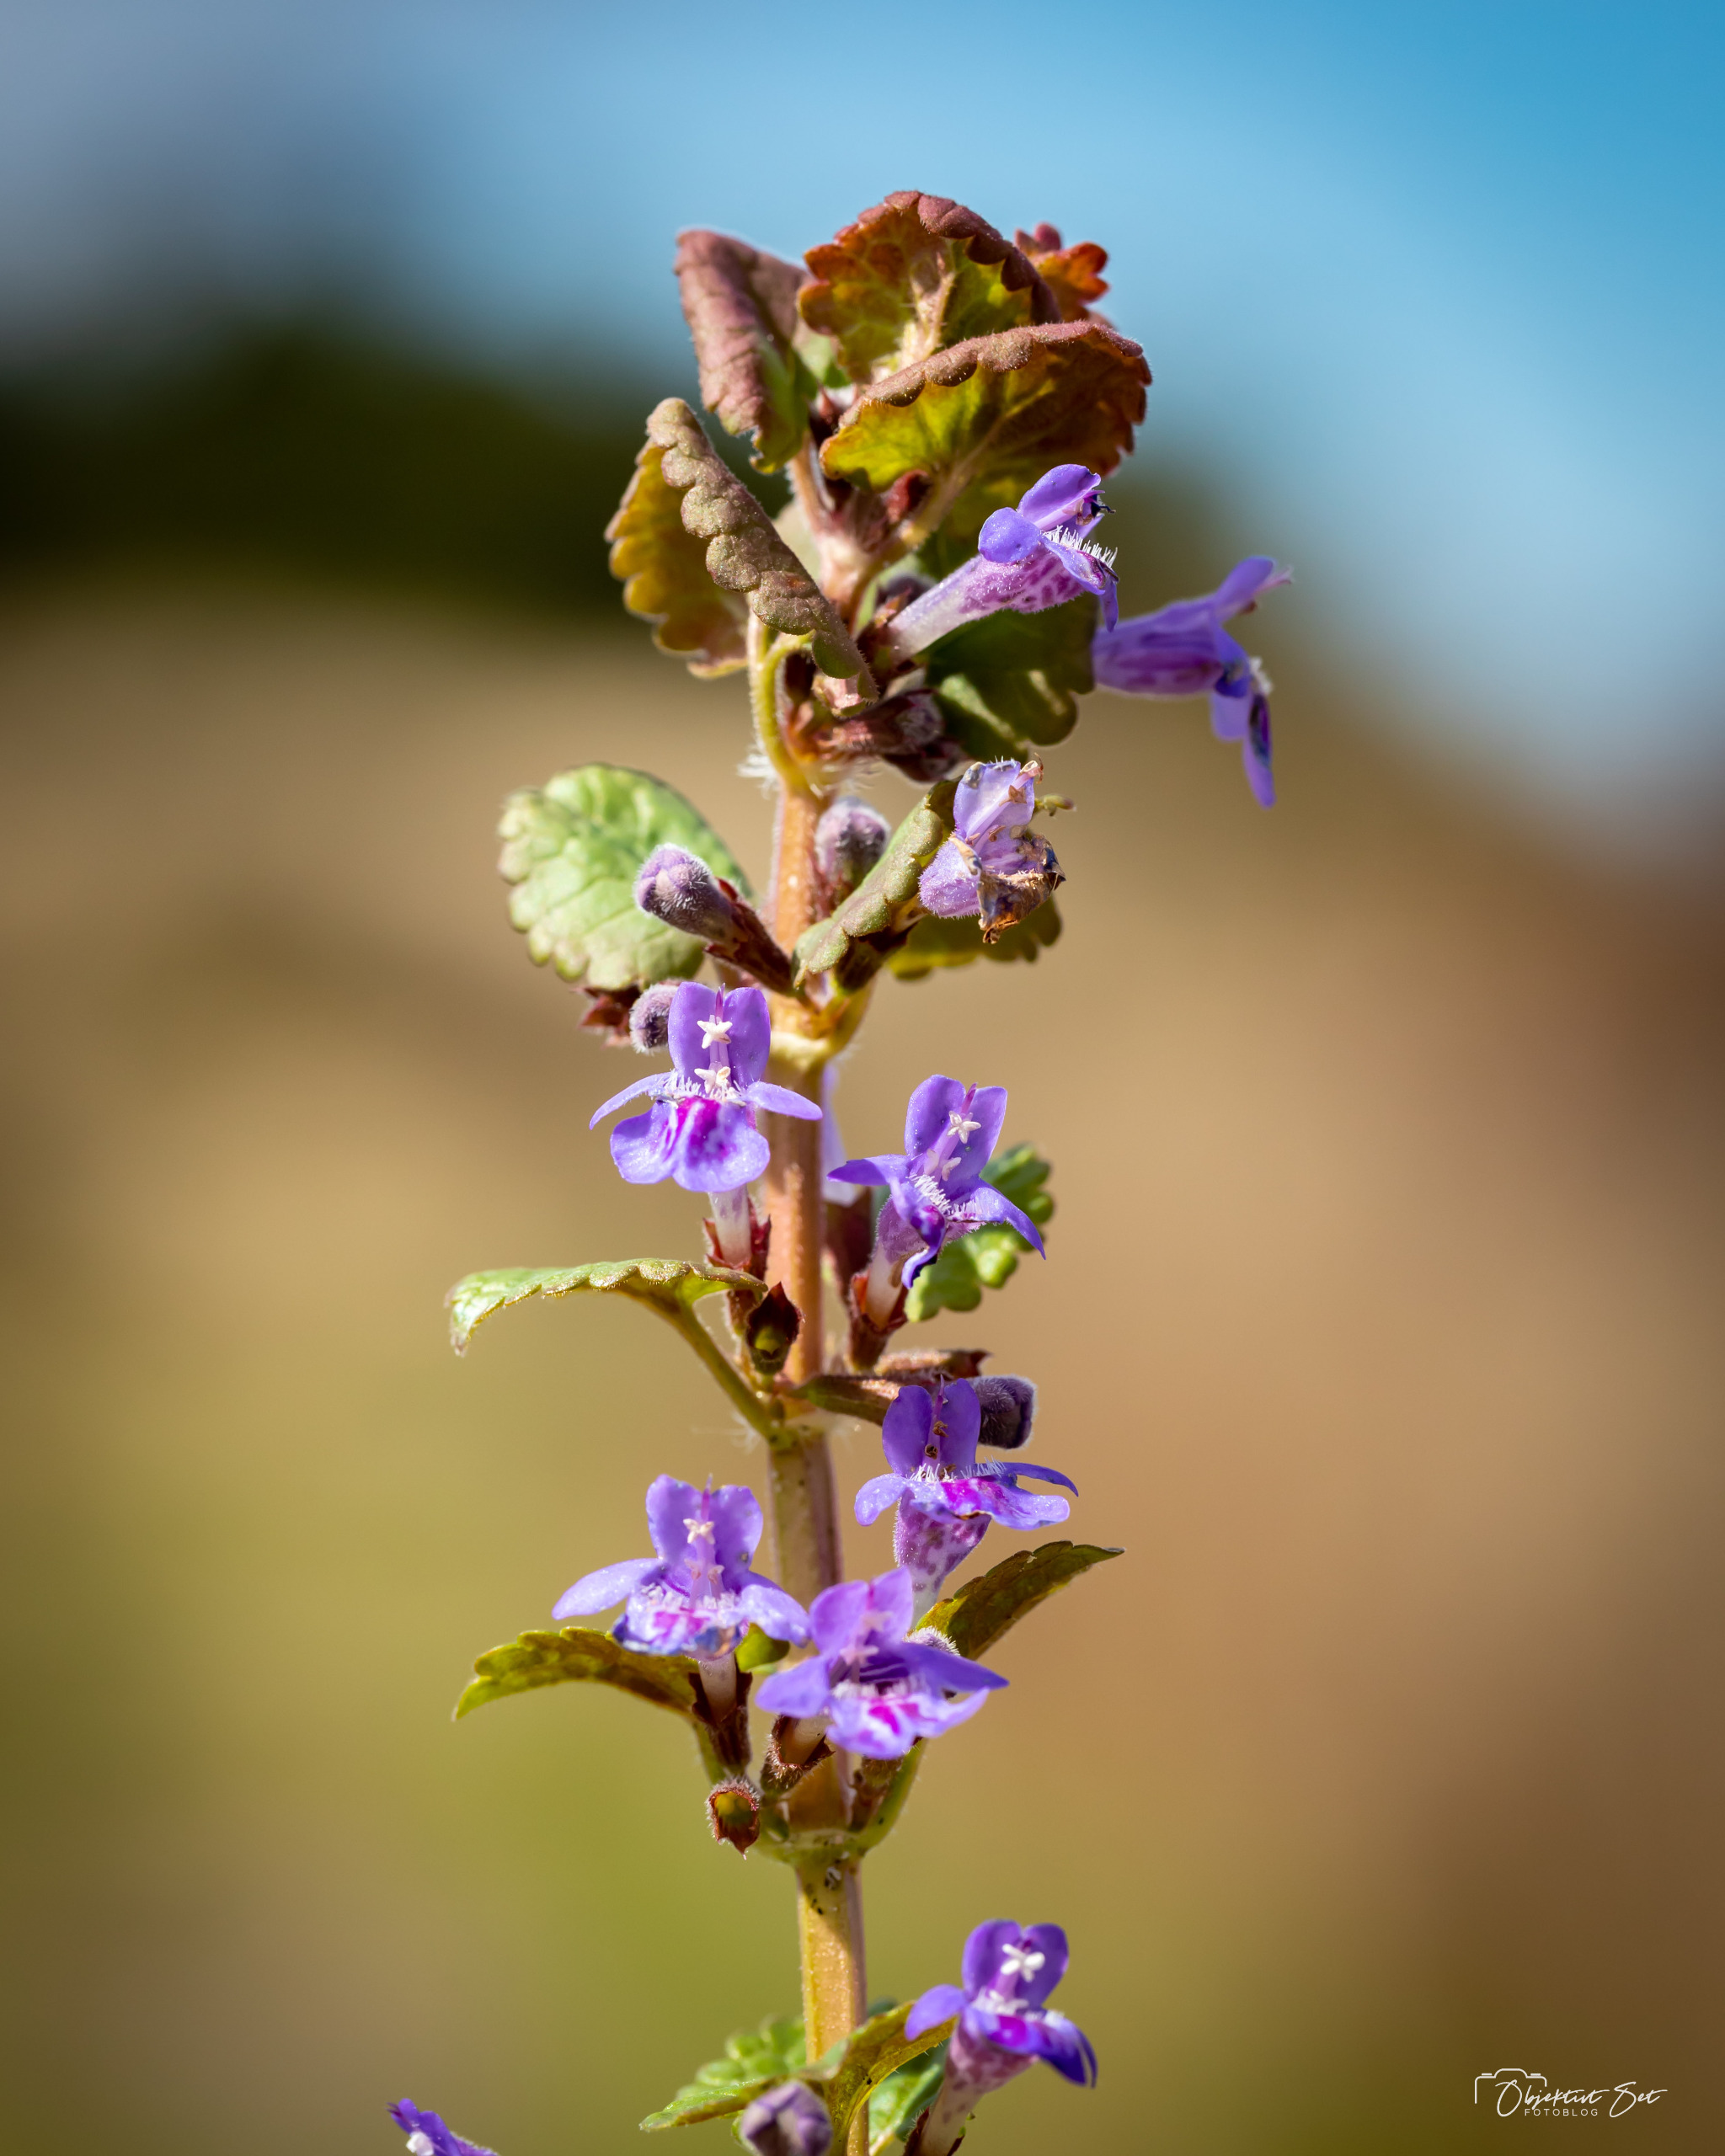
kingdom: Plantae
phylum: Tracheophyta
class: Magnoliopsida
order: Lamiales
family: Lamiaceae
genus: Glechoma
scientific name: Glechoma hederacea
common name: Korsknap
